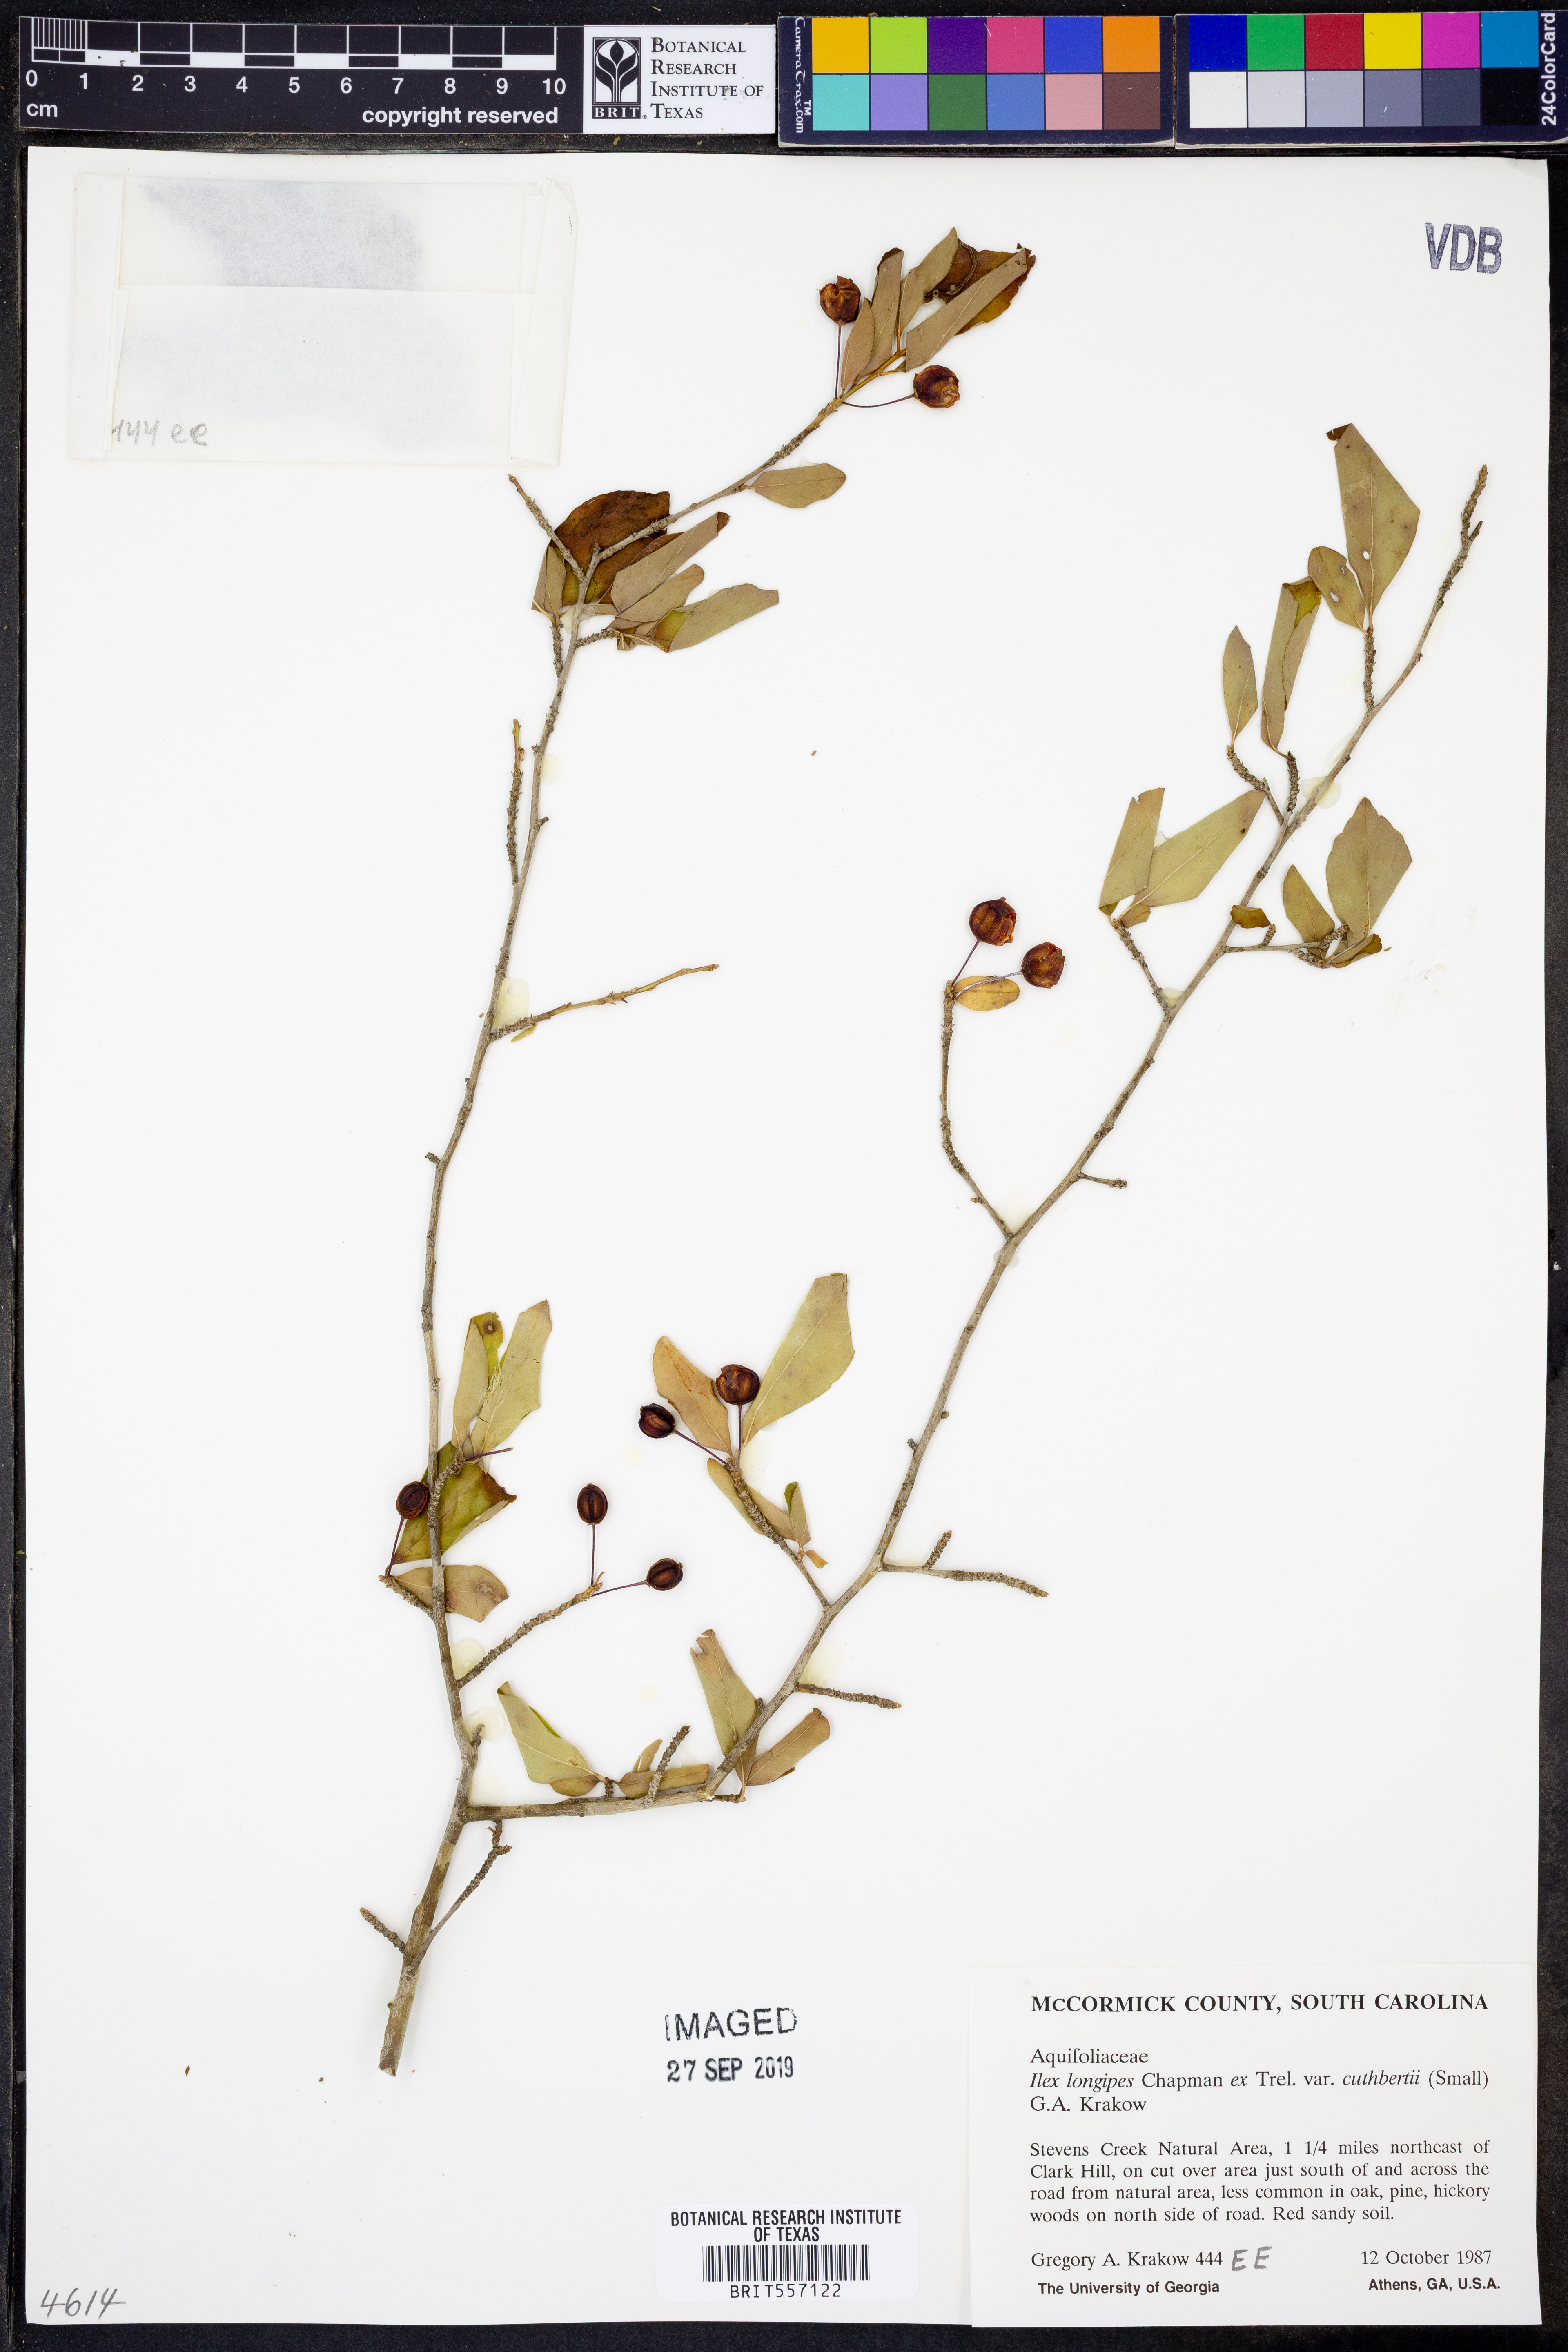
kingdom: Plantae
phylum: Tracheophyta
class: Magnoliopsida
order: Aquifoliales
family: Aquifoliaceae
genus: Ilex
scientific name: Ilex longipes
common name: Georgia holly
